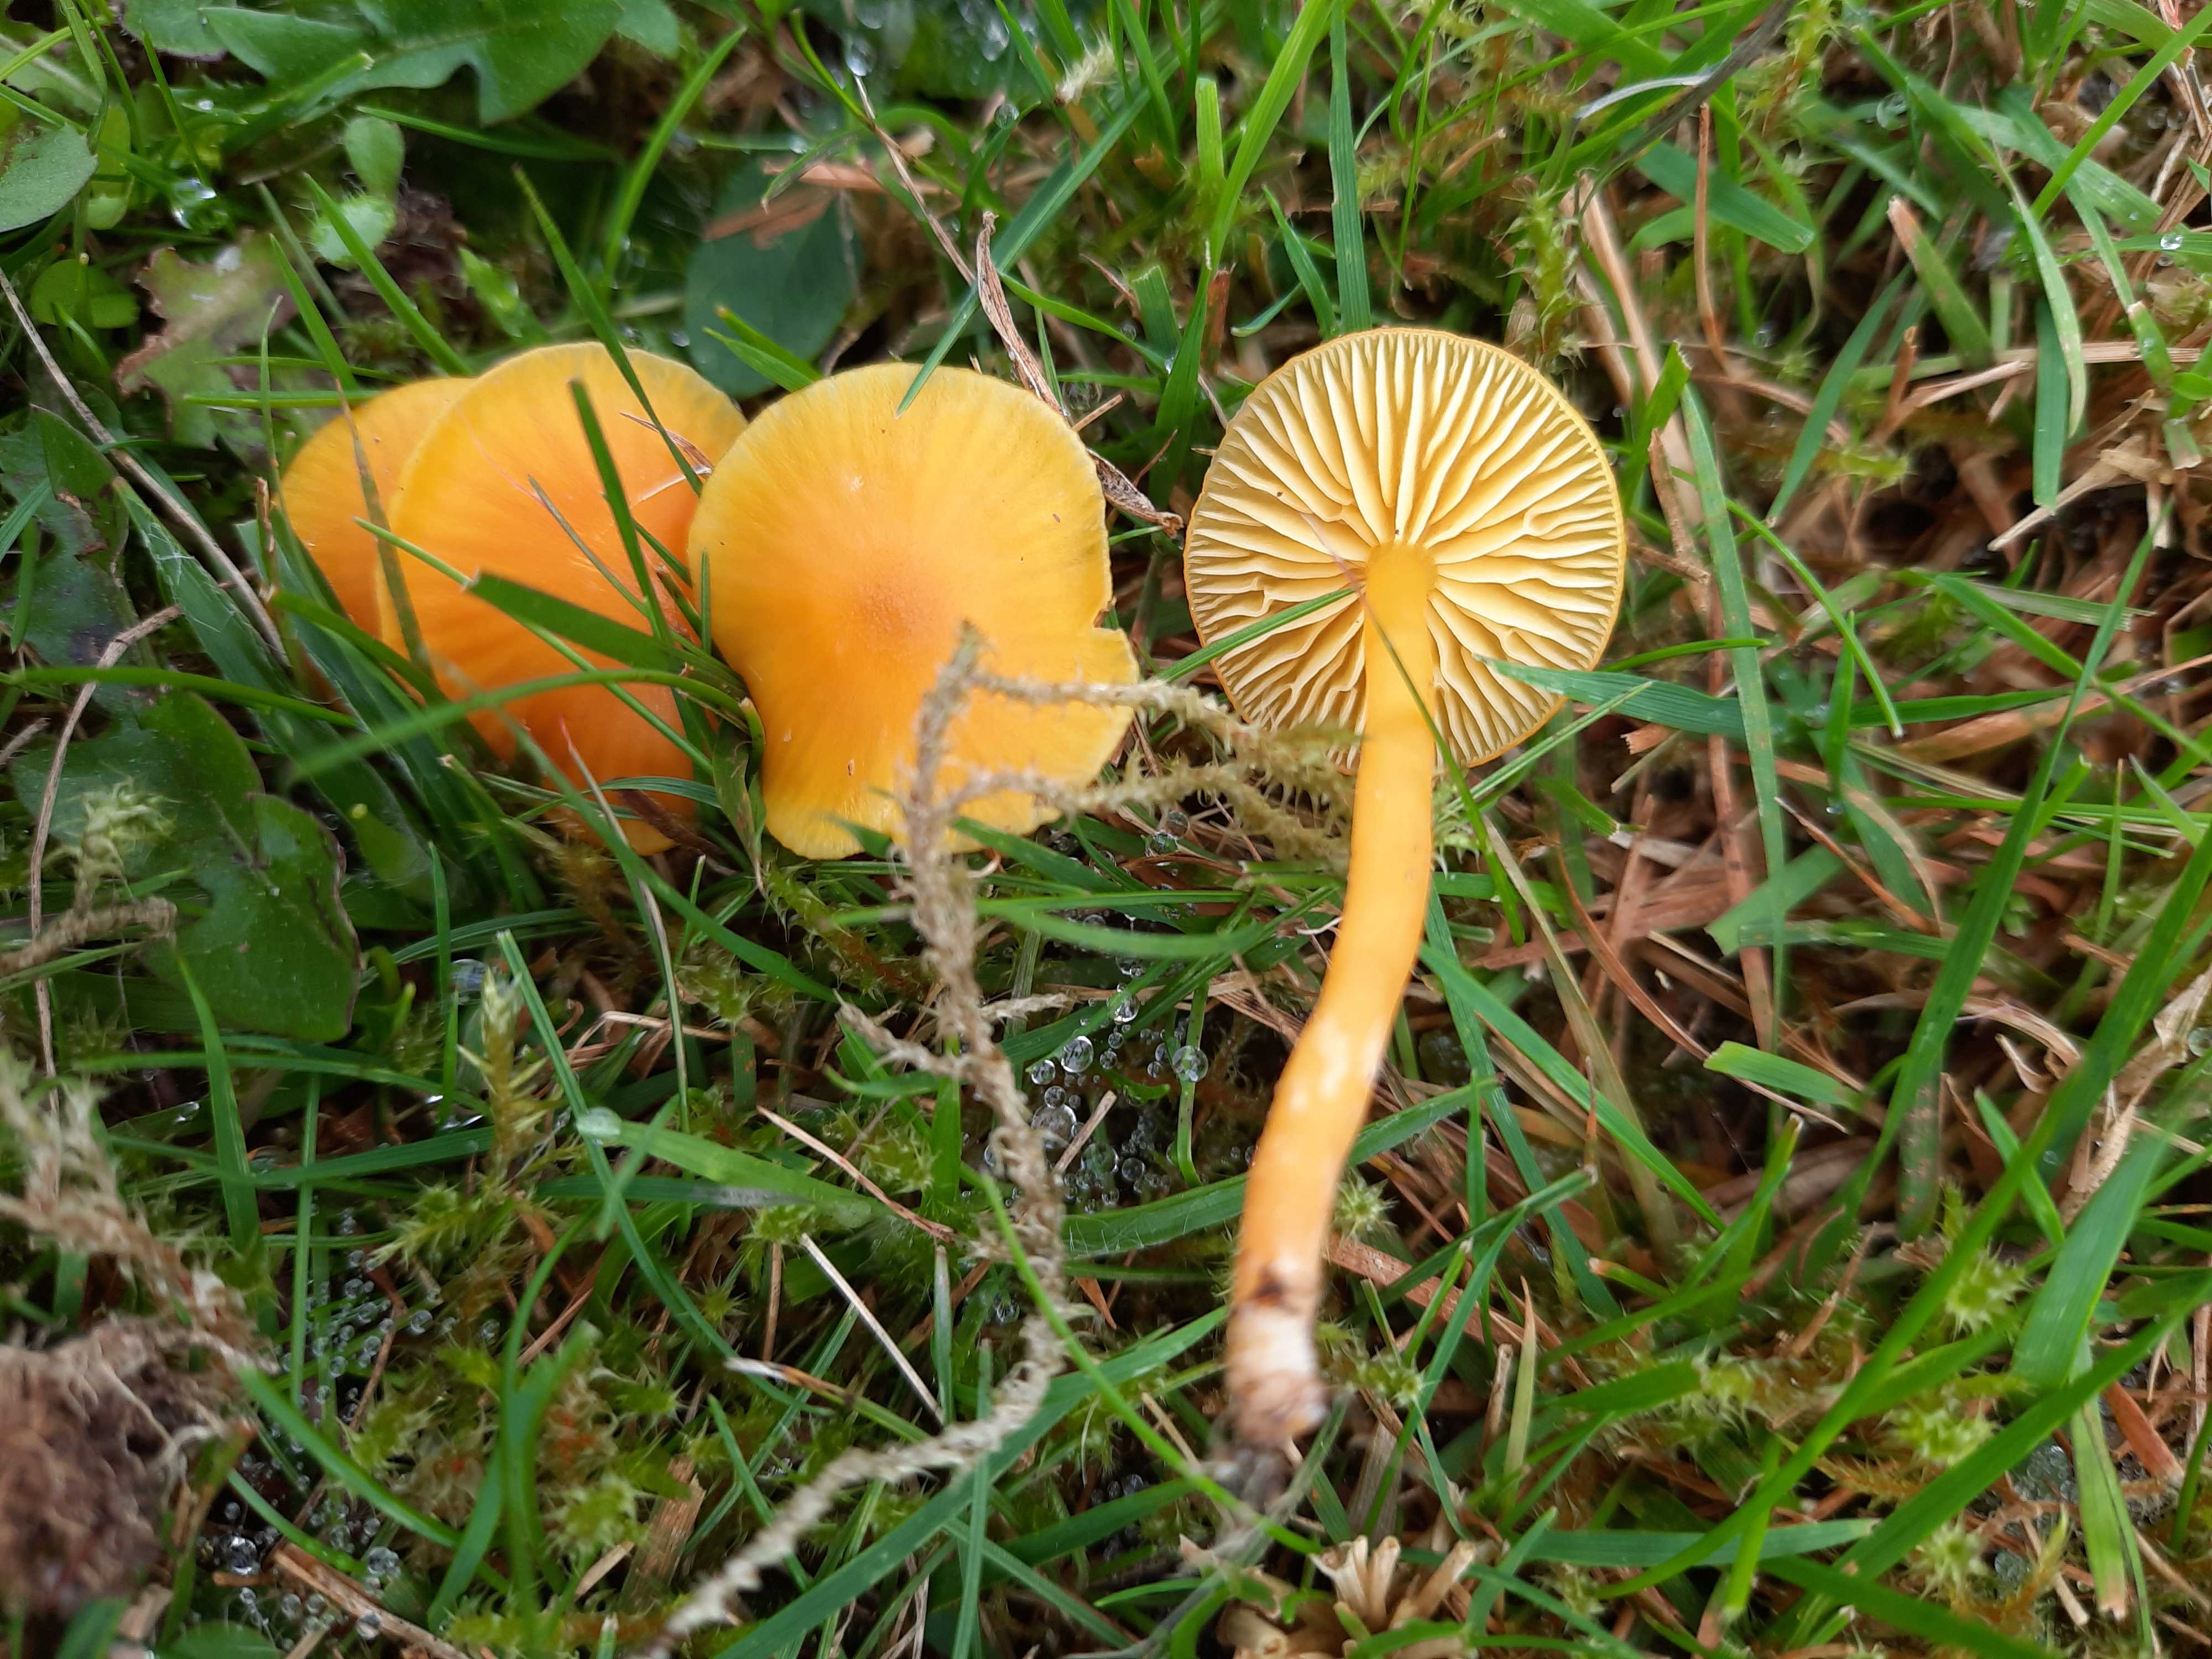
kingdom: Fungi
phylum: Basidiomycota
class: Agaricomycetes
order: Agaricales
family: Hygrophoraceae
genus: Hygrocybe
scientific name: Hygrocybe ceracea
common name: voksgul vokshat
